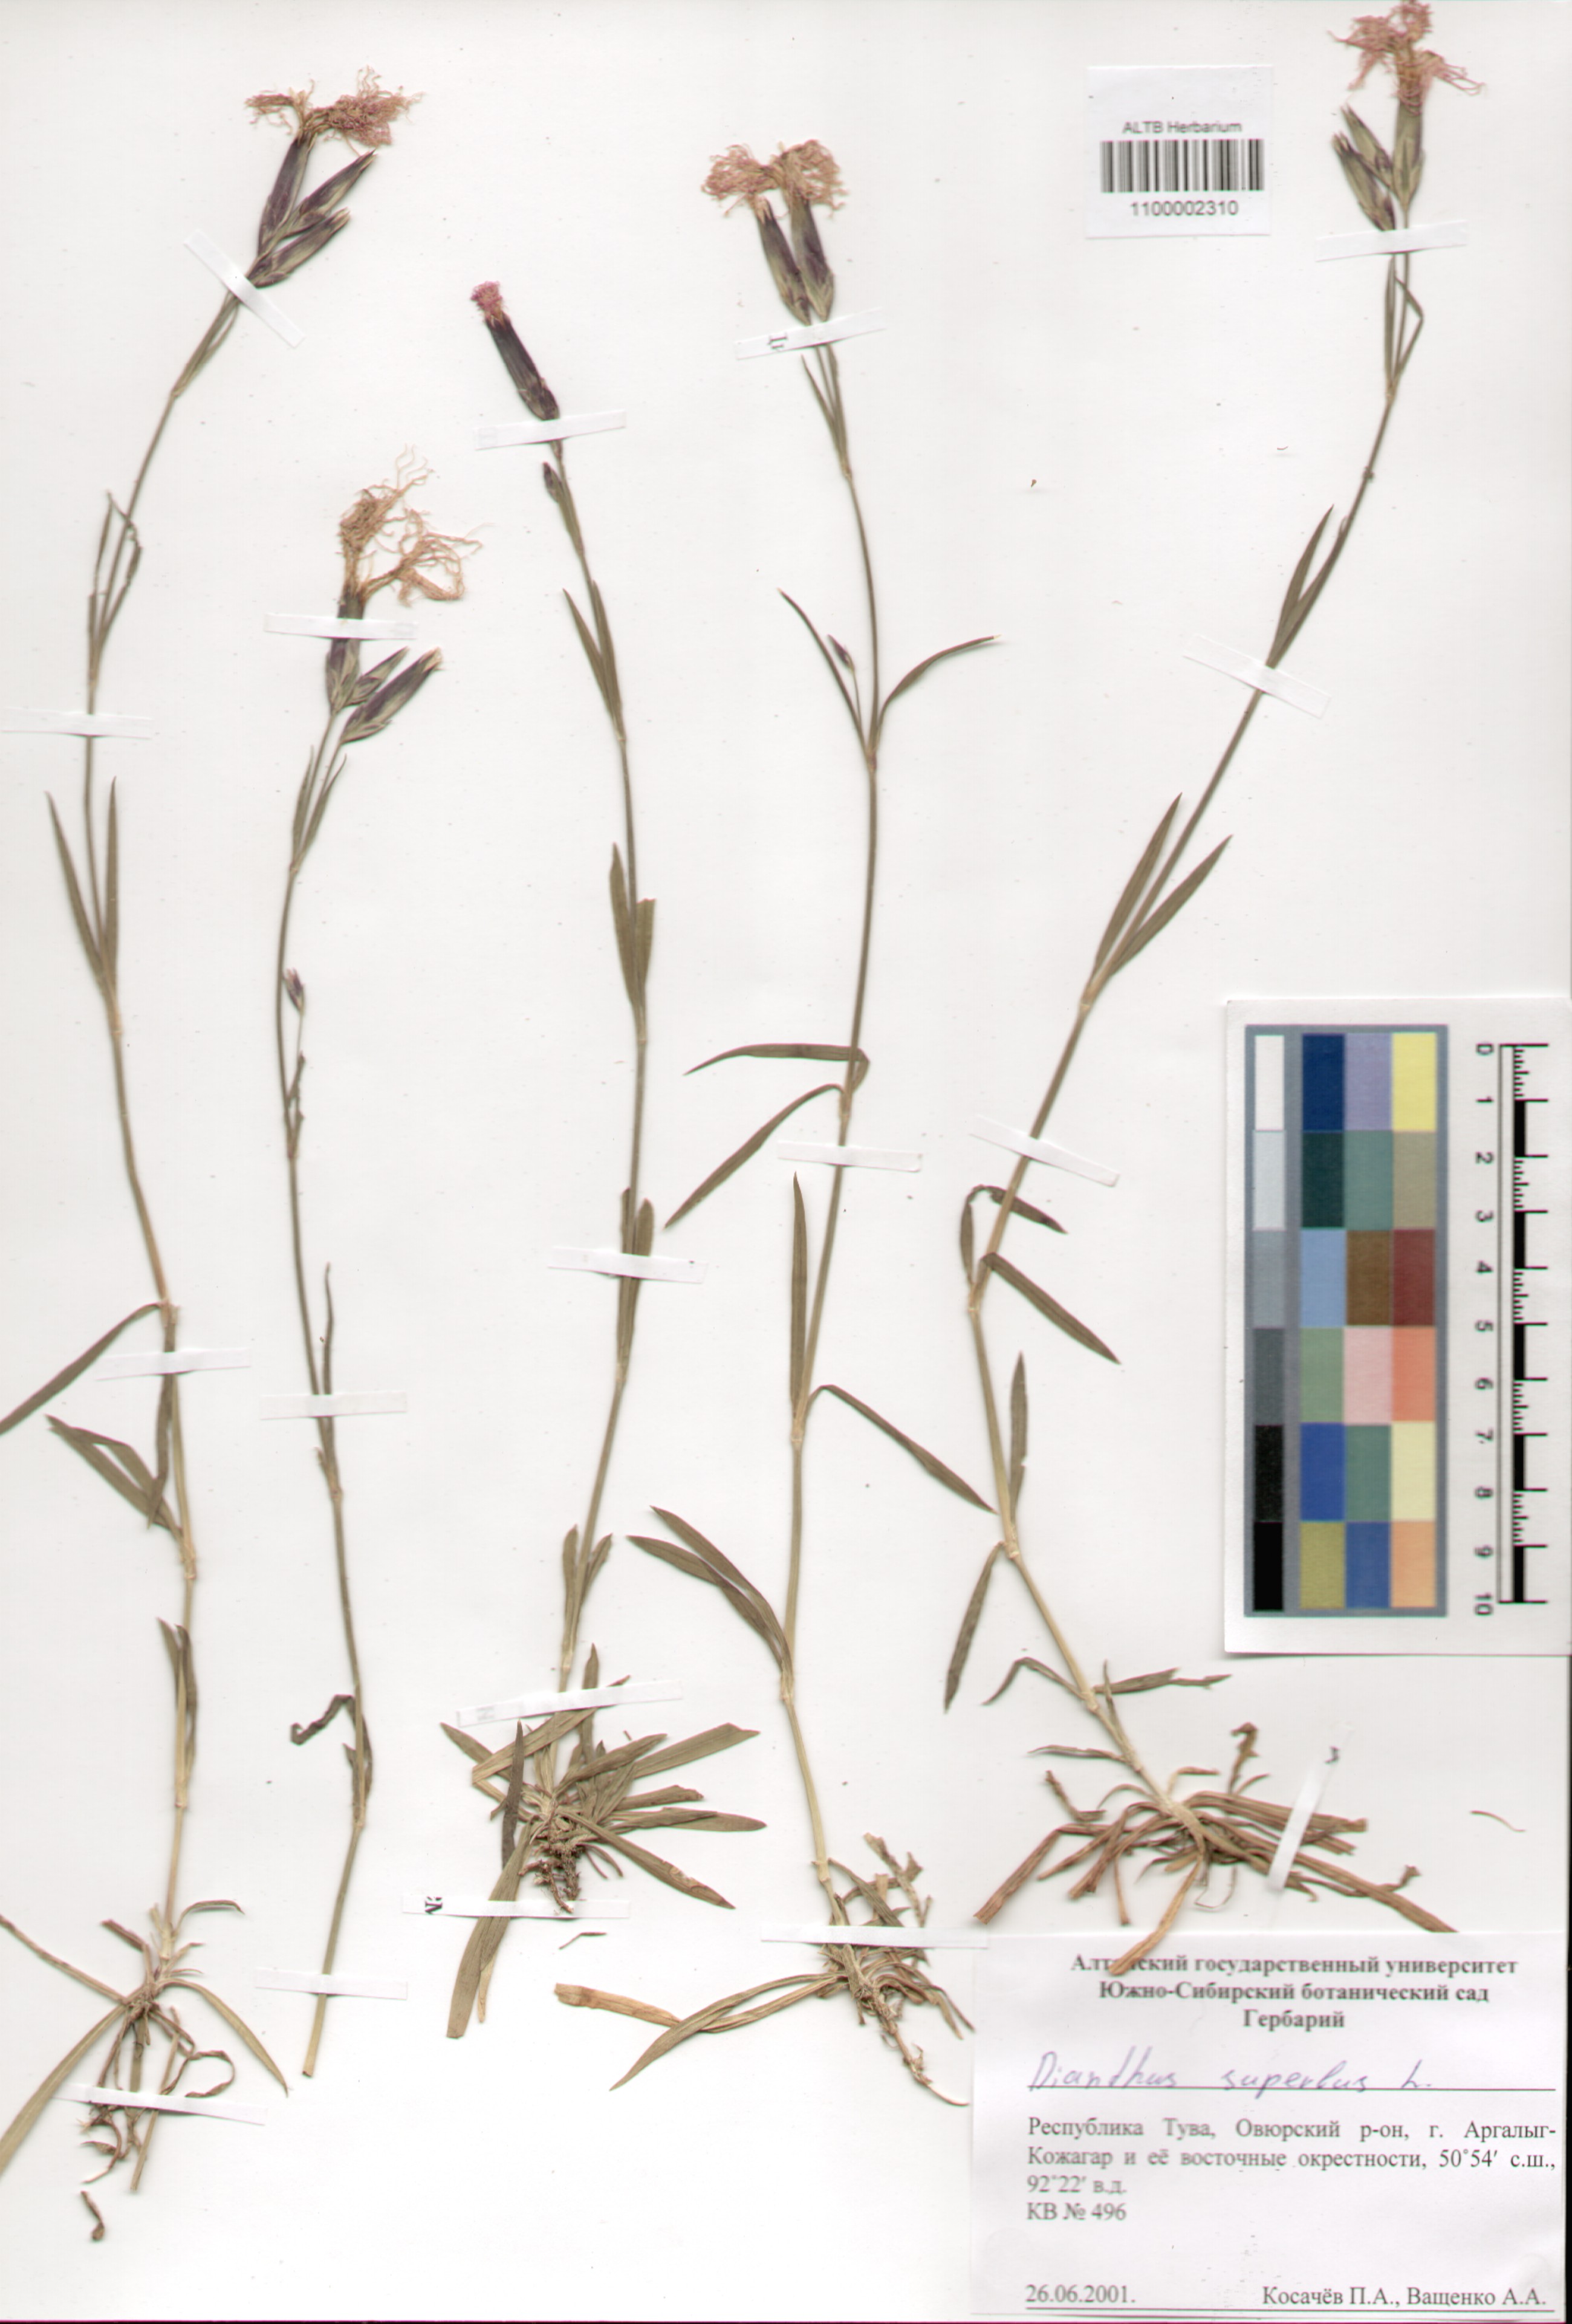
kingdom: Plantae
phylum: Tracheophyta
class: Magnoliopsida
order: Caryophyllales
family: Caryophyllaceae
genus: Dianthus
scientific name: Dianthus superbus
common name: Fringed pink
